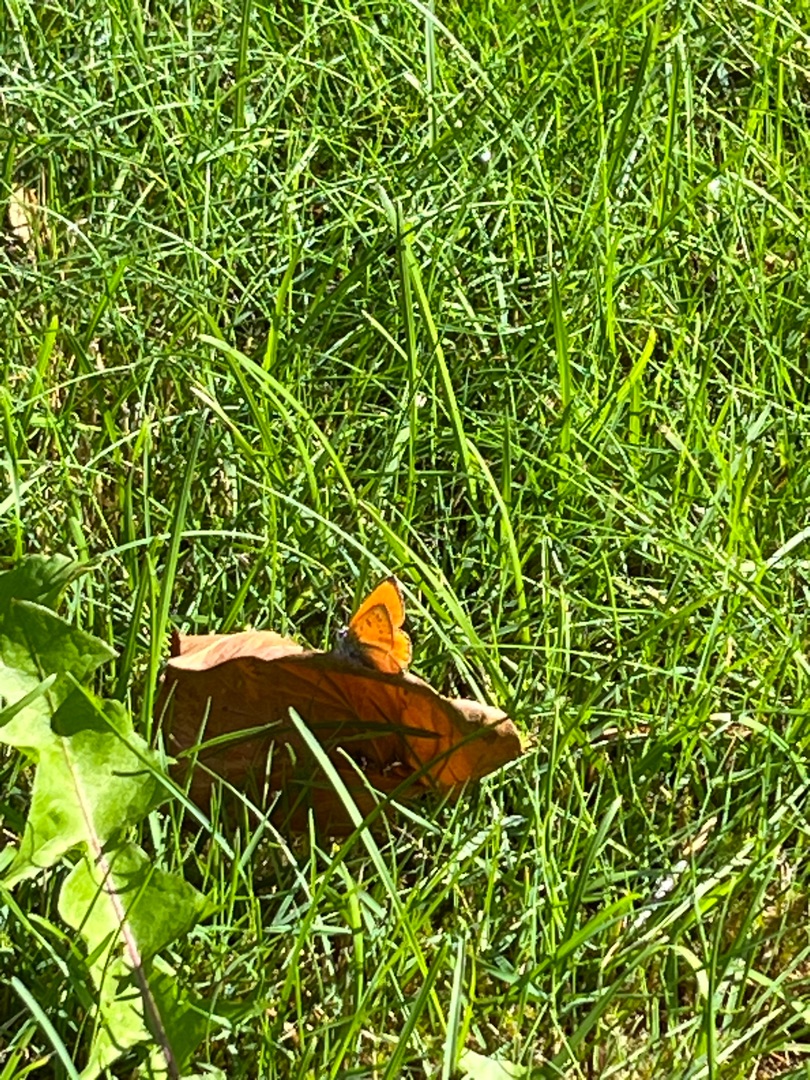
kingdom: Animalia
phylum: Arthropoda
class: Insecta
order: Lepidoptera
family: Lycaenidae
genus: Lycaena
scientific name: Lycaena virgaureae
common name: Dukatsommerfugl
